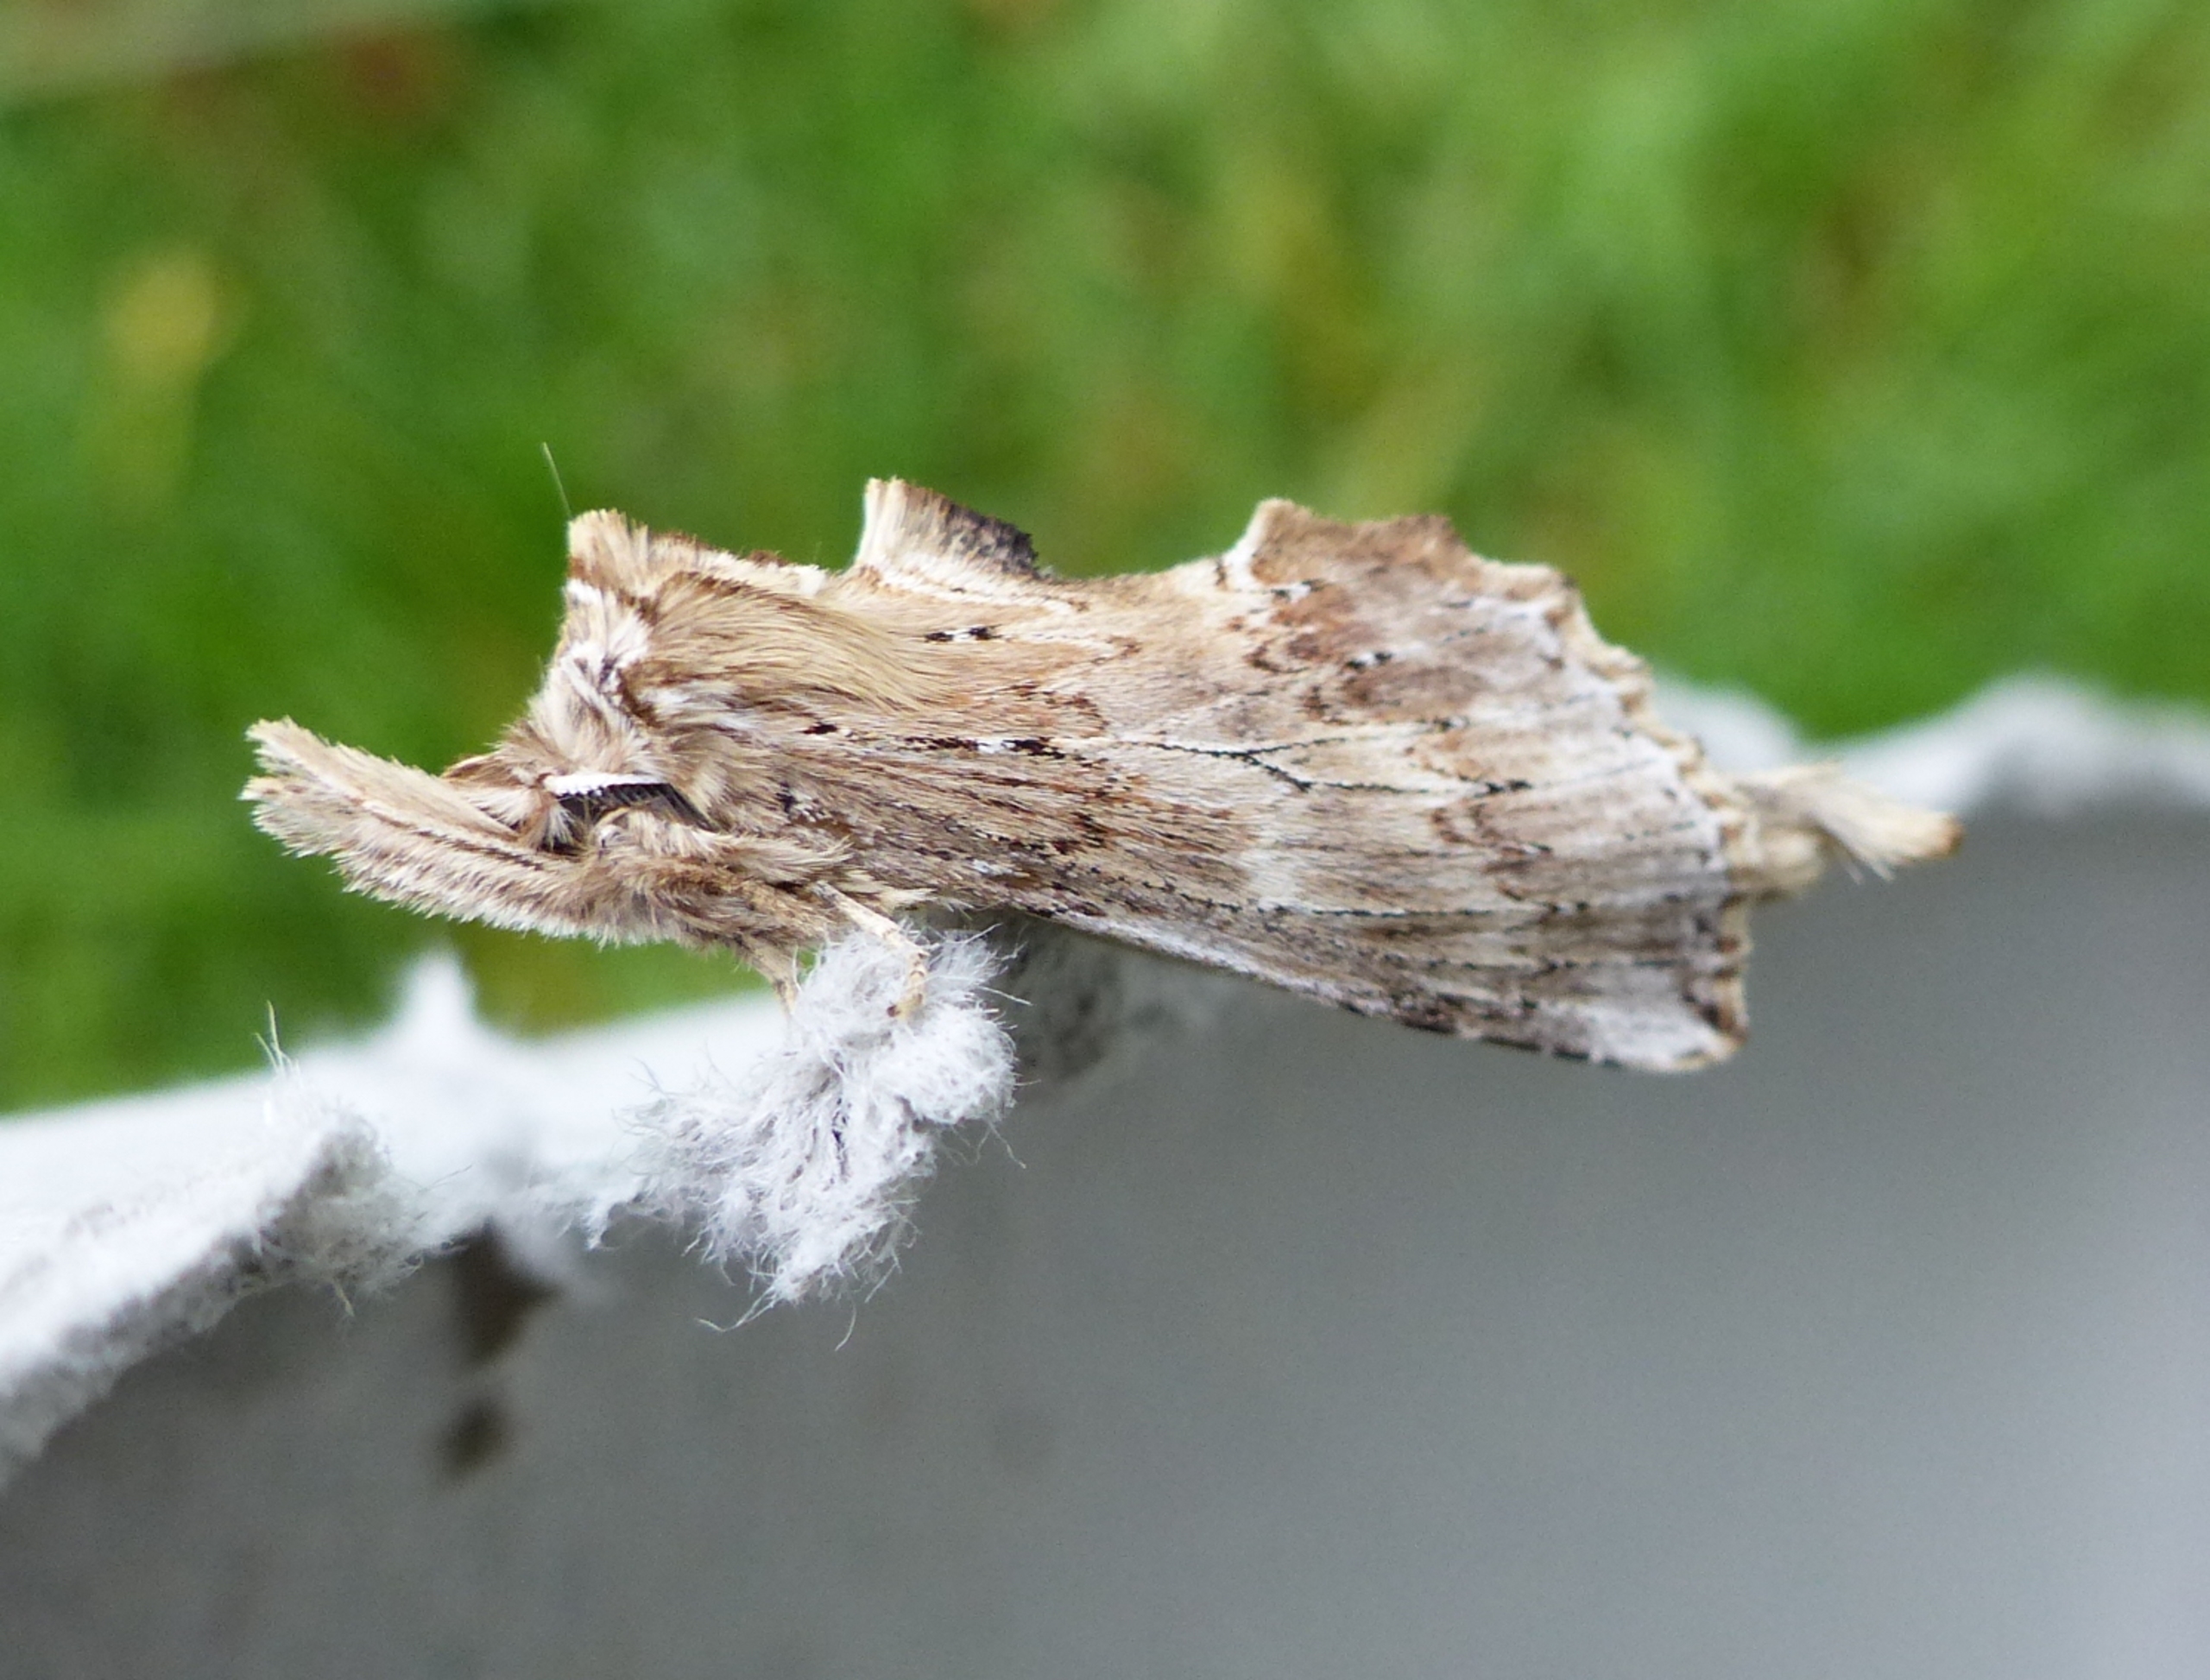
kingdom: Animalia
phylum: Arthropoda
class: Insecta
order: Lepidoptera
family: Notodontidae
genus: Pterostoma
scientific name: Pterostoma palpina
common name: Palpetandspinder
